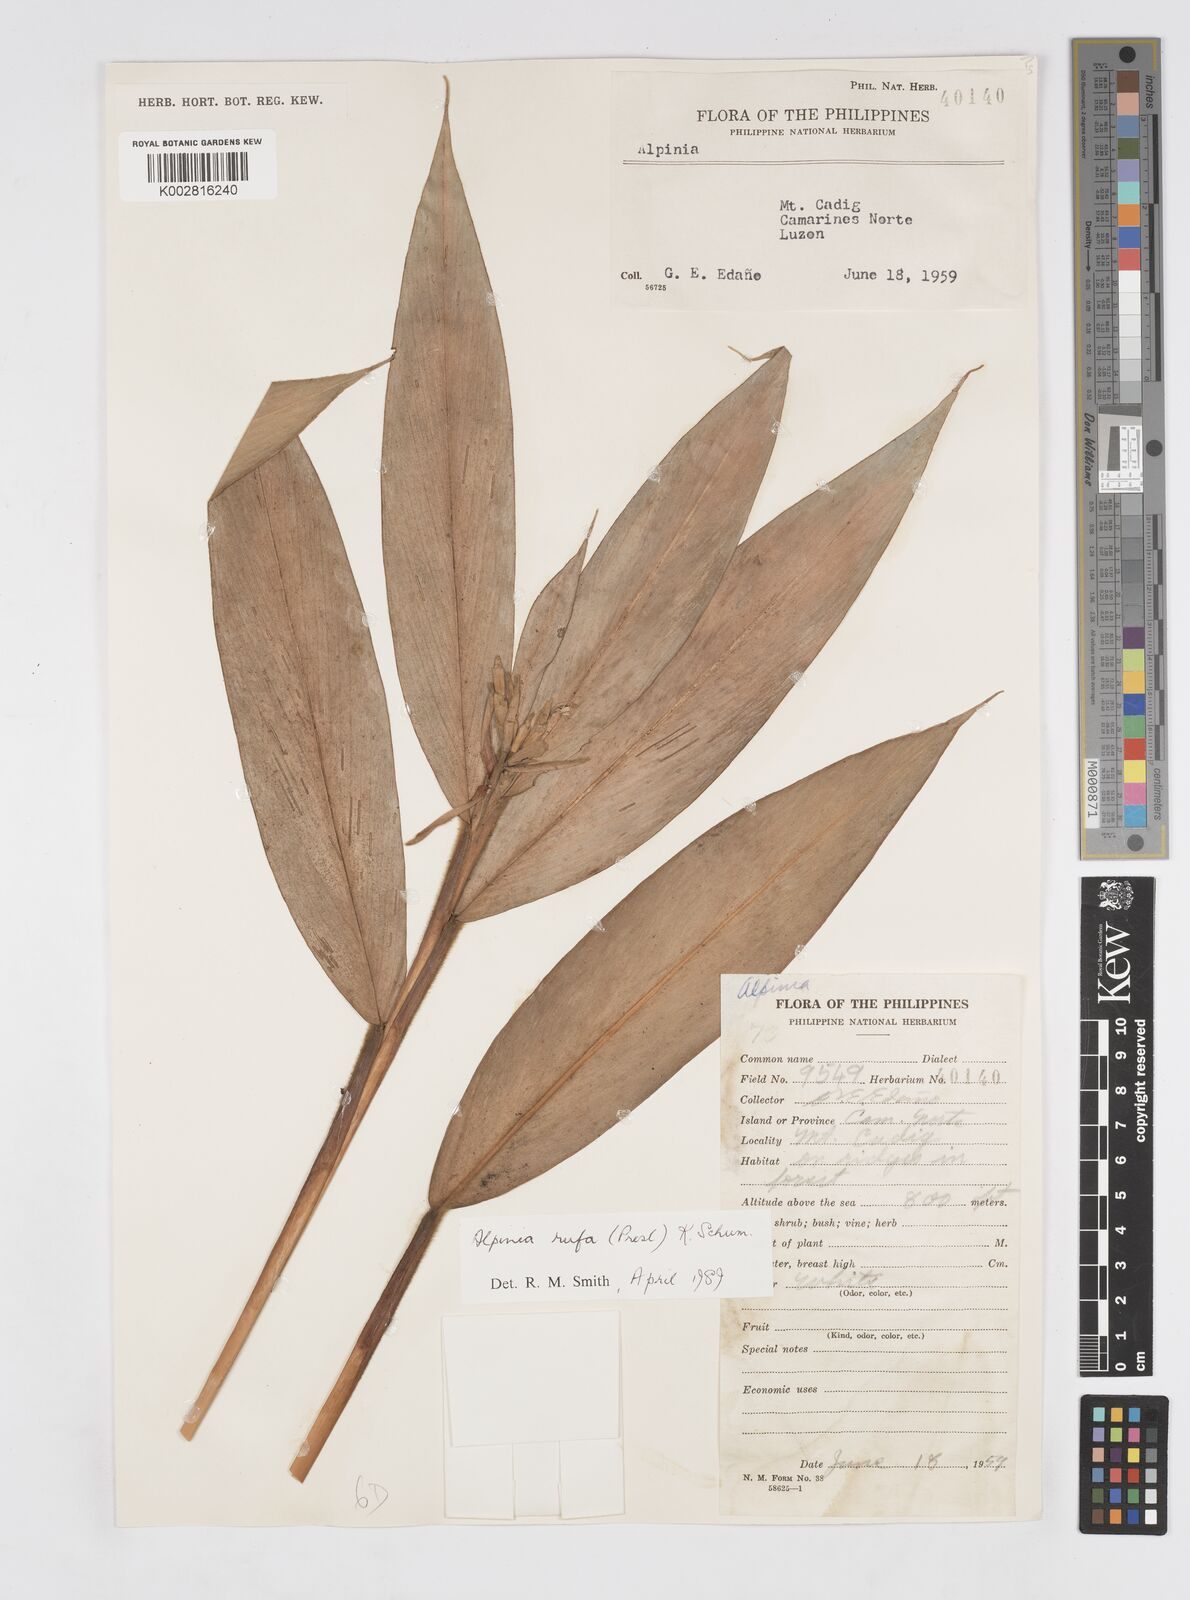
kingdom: Plantae
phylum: Tracheophyta
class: Liliopsida
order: Zingiberales
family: Zingiberaceae
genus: Alpinia
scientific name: Alpinia rufa
